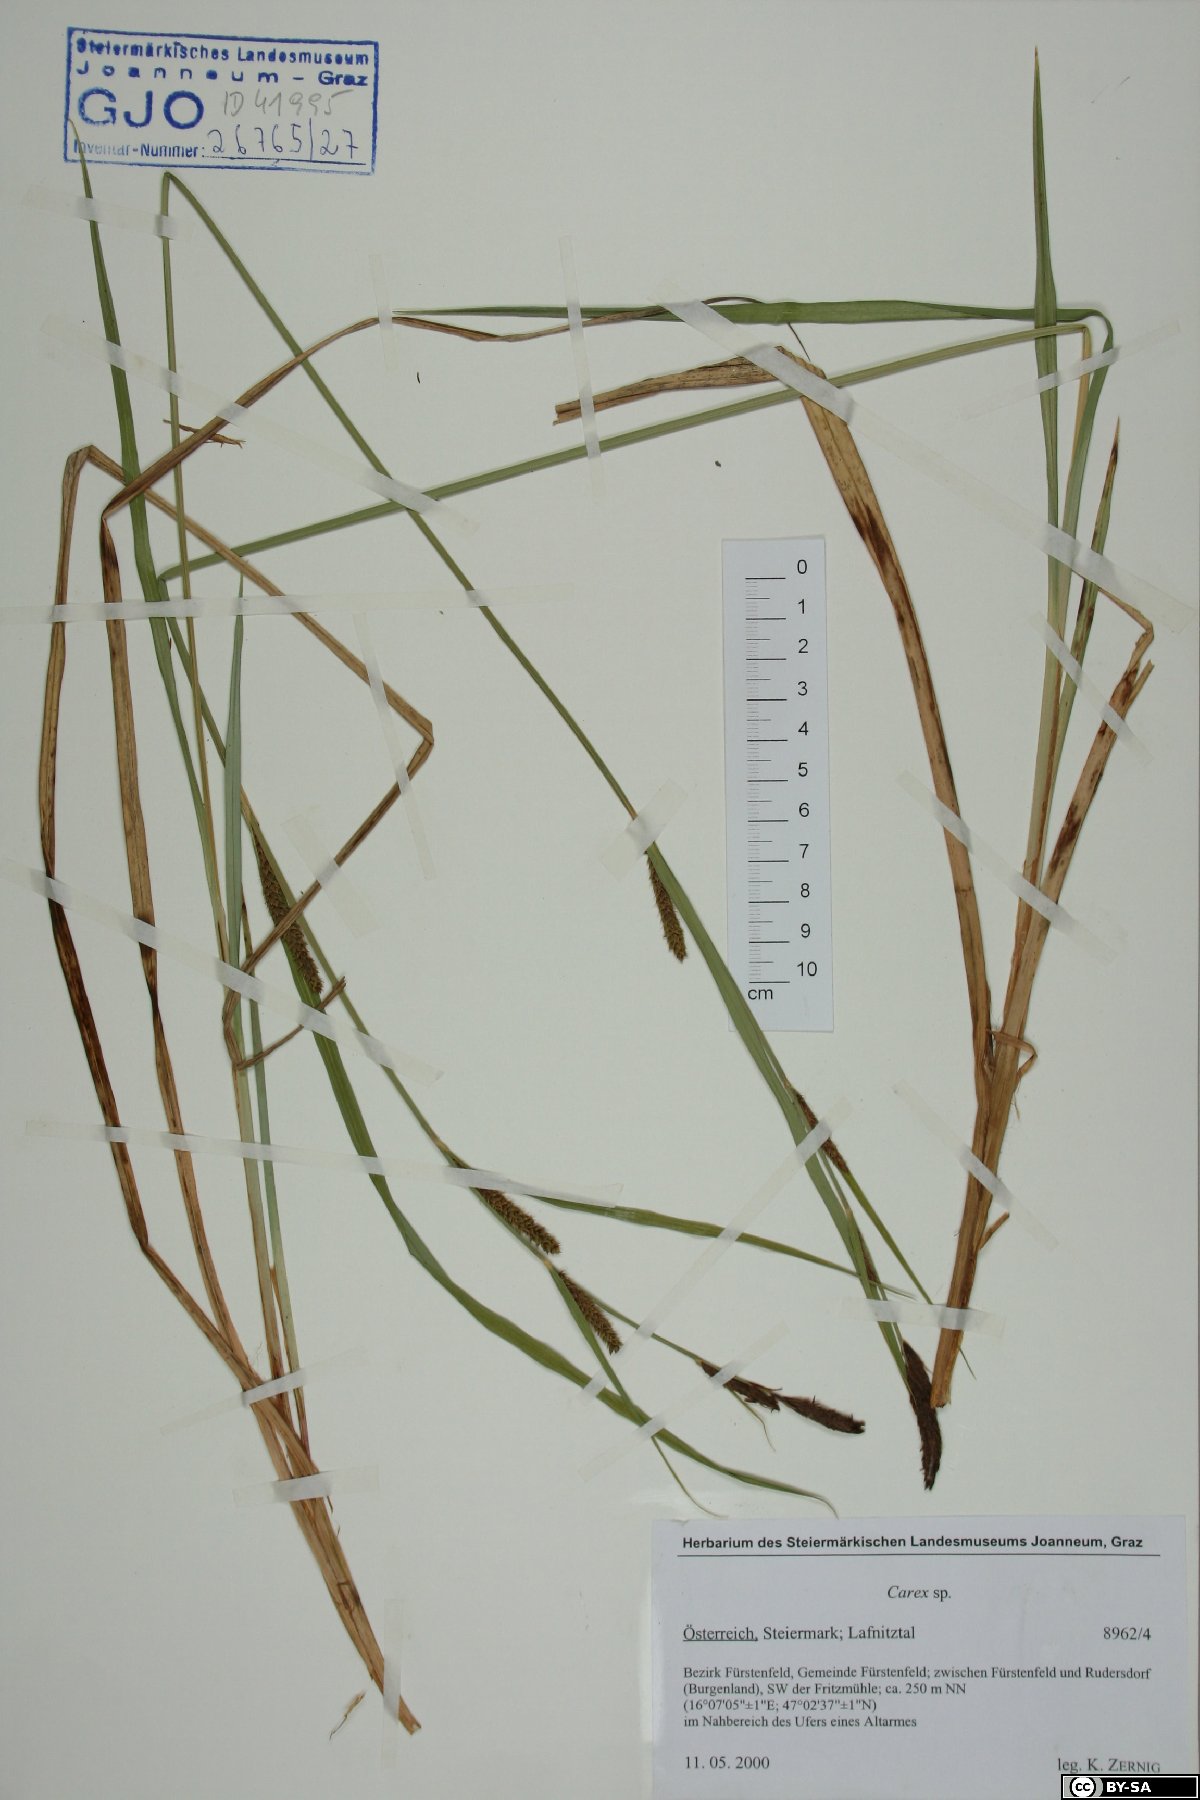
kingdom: Plantae
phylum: Tracheophyta
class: Liliopsida
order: Poales
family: Cyperaceae
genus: Carex
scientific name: Carex
